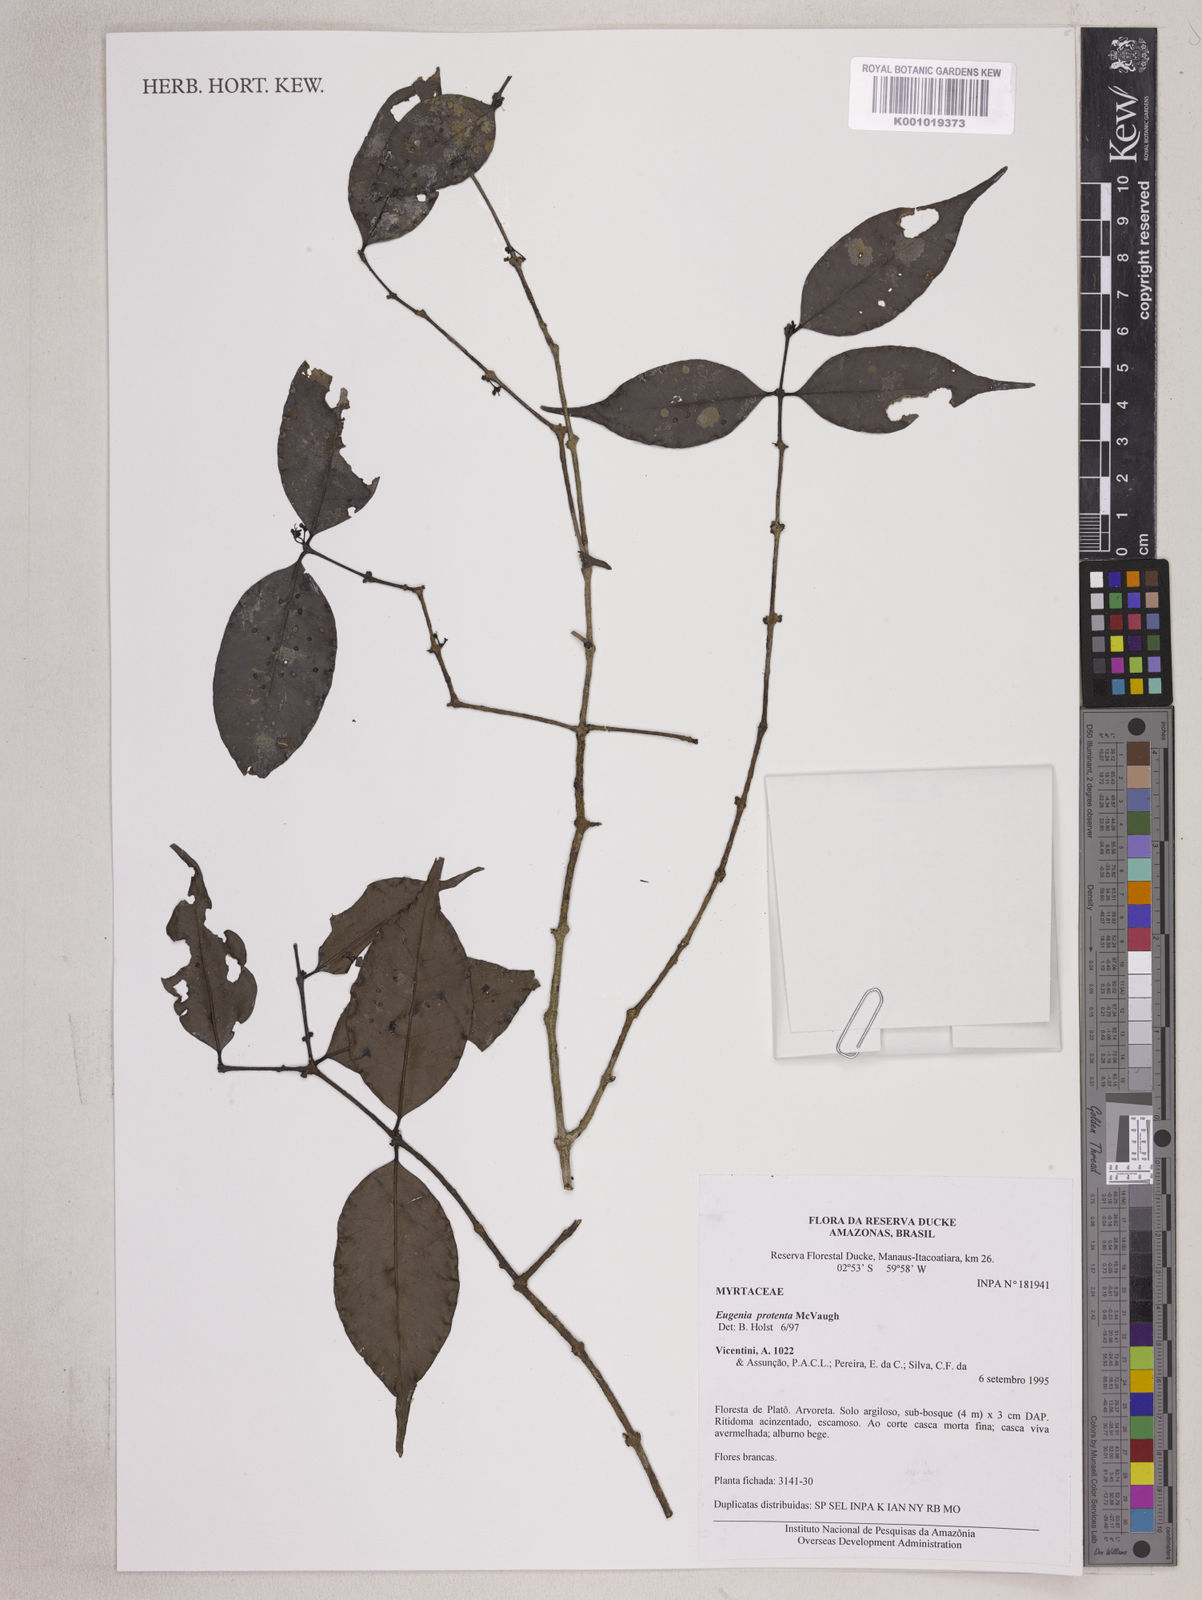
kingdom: Plantae
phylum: Tracheophyta
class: Magnoliopsida
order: Myrtales
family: Myrtaceae
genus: Eugenia
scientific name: Eugenia protenta
